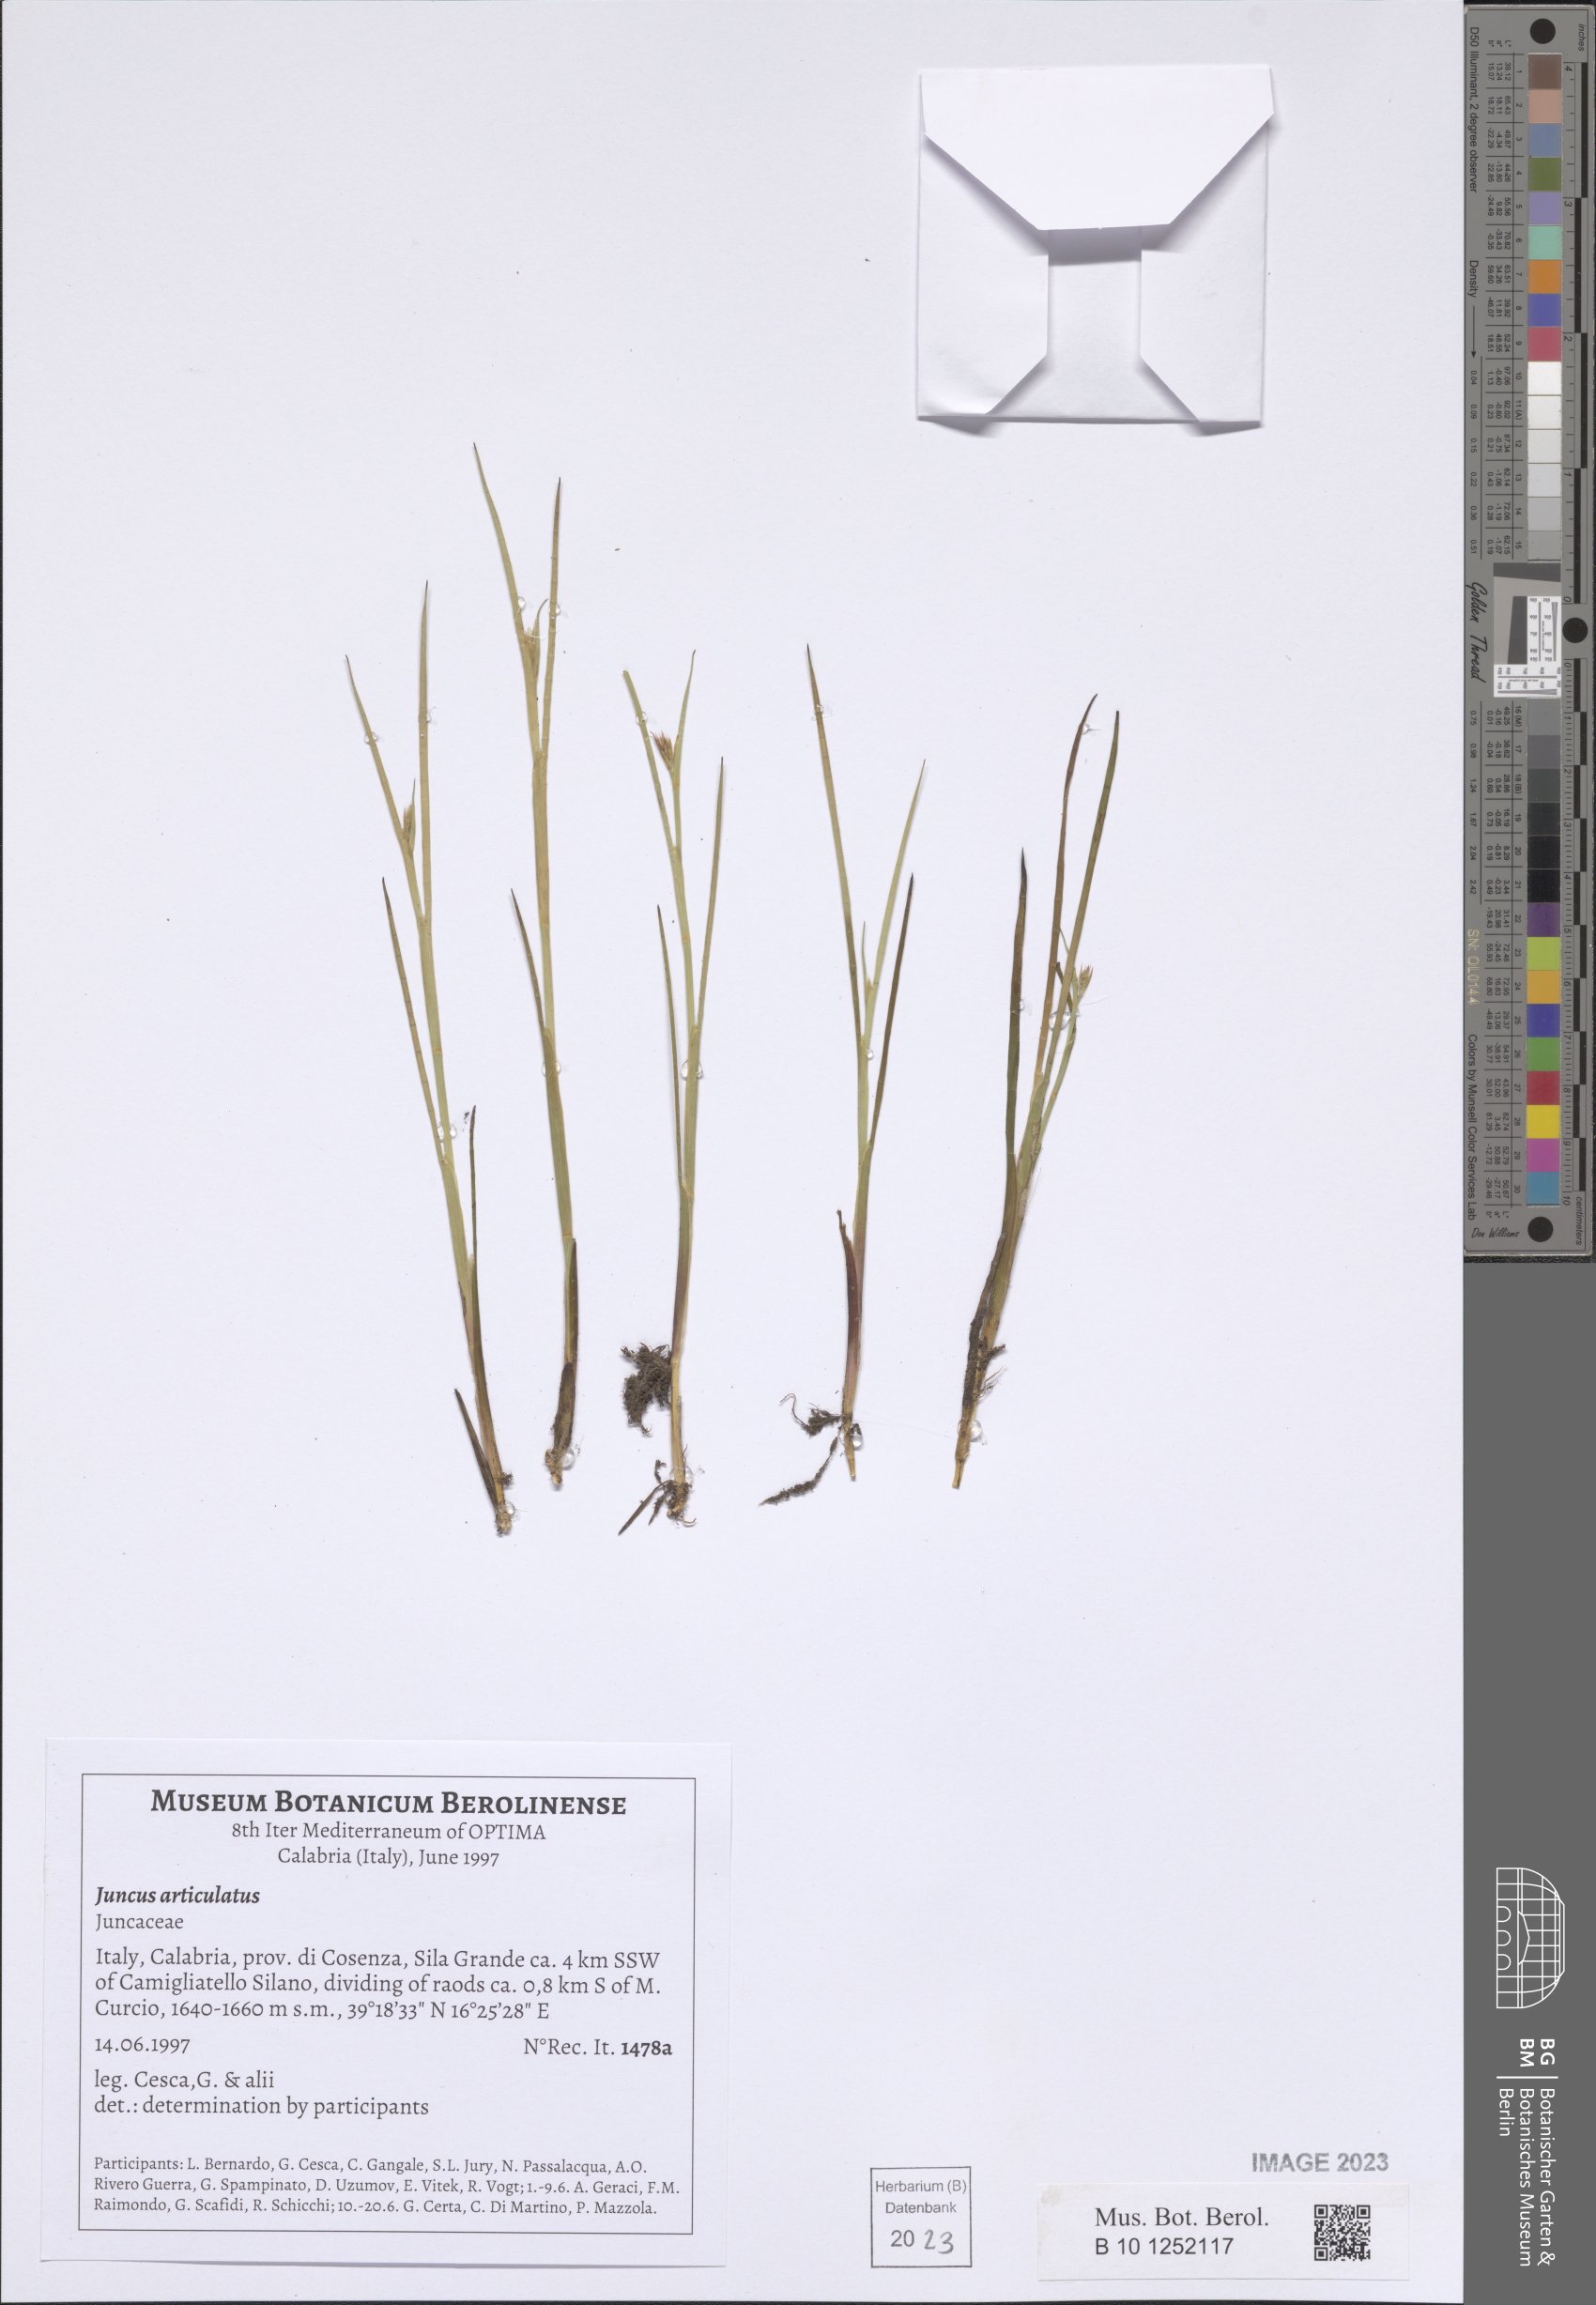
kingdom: Plantae
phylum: Tracheophyta
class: Liliopsida
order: Poales
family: Juncaceae
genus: Juncus
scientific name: Juncus articulatus
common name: Jointed rush
